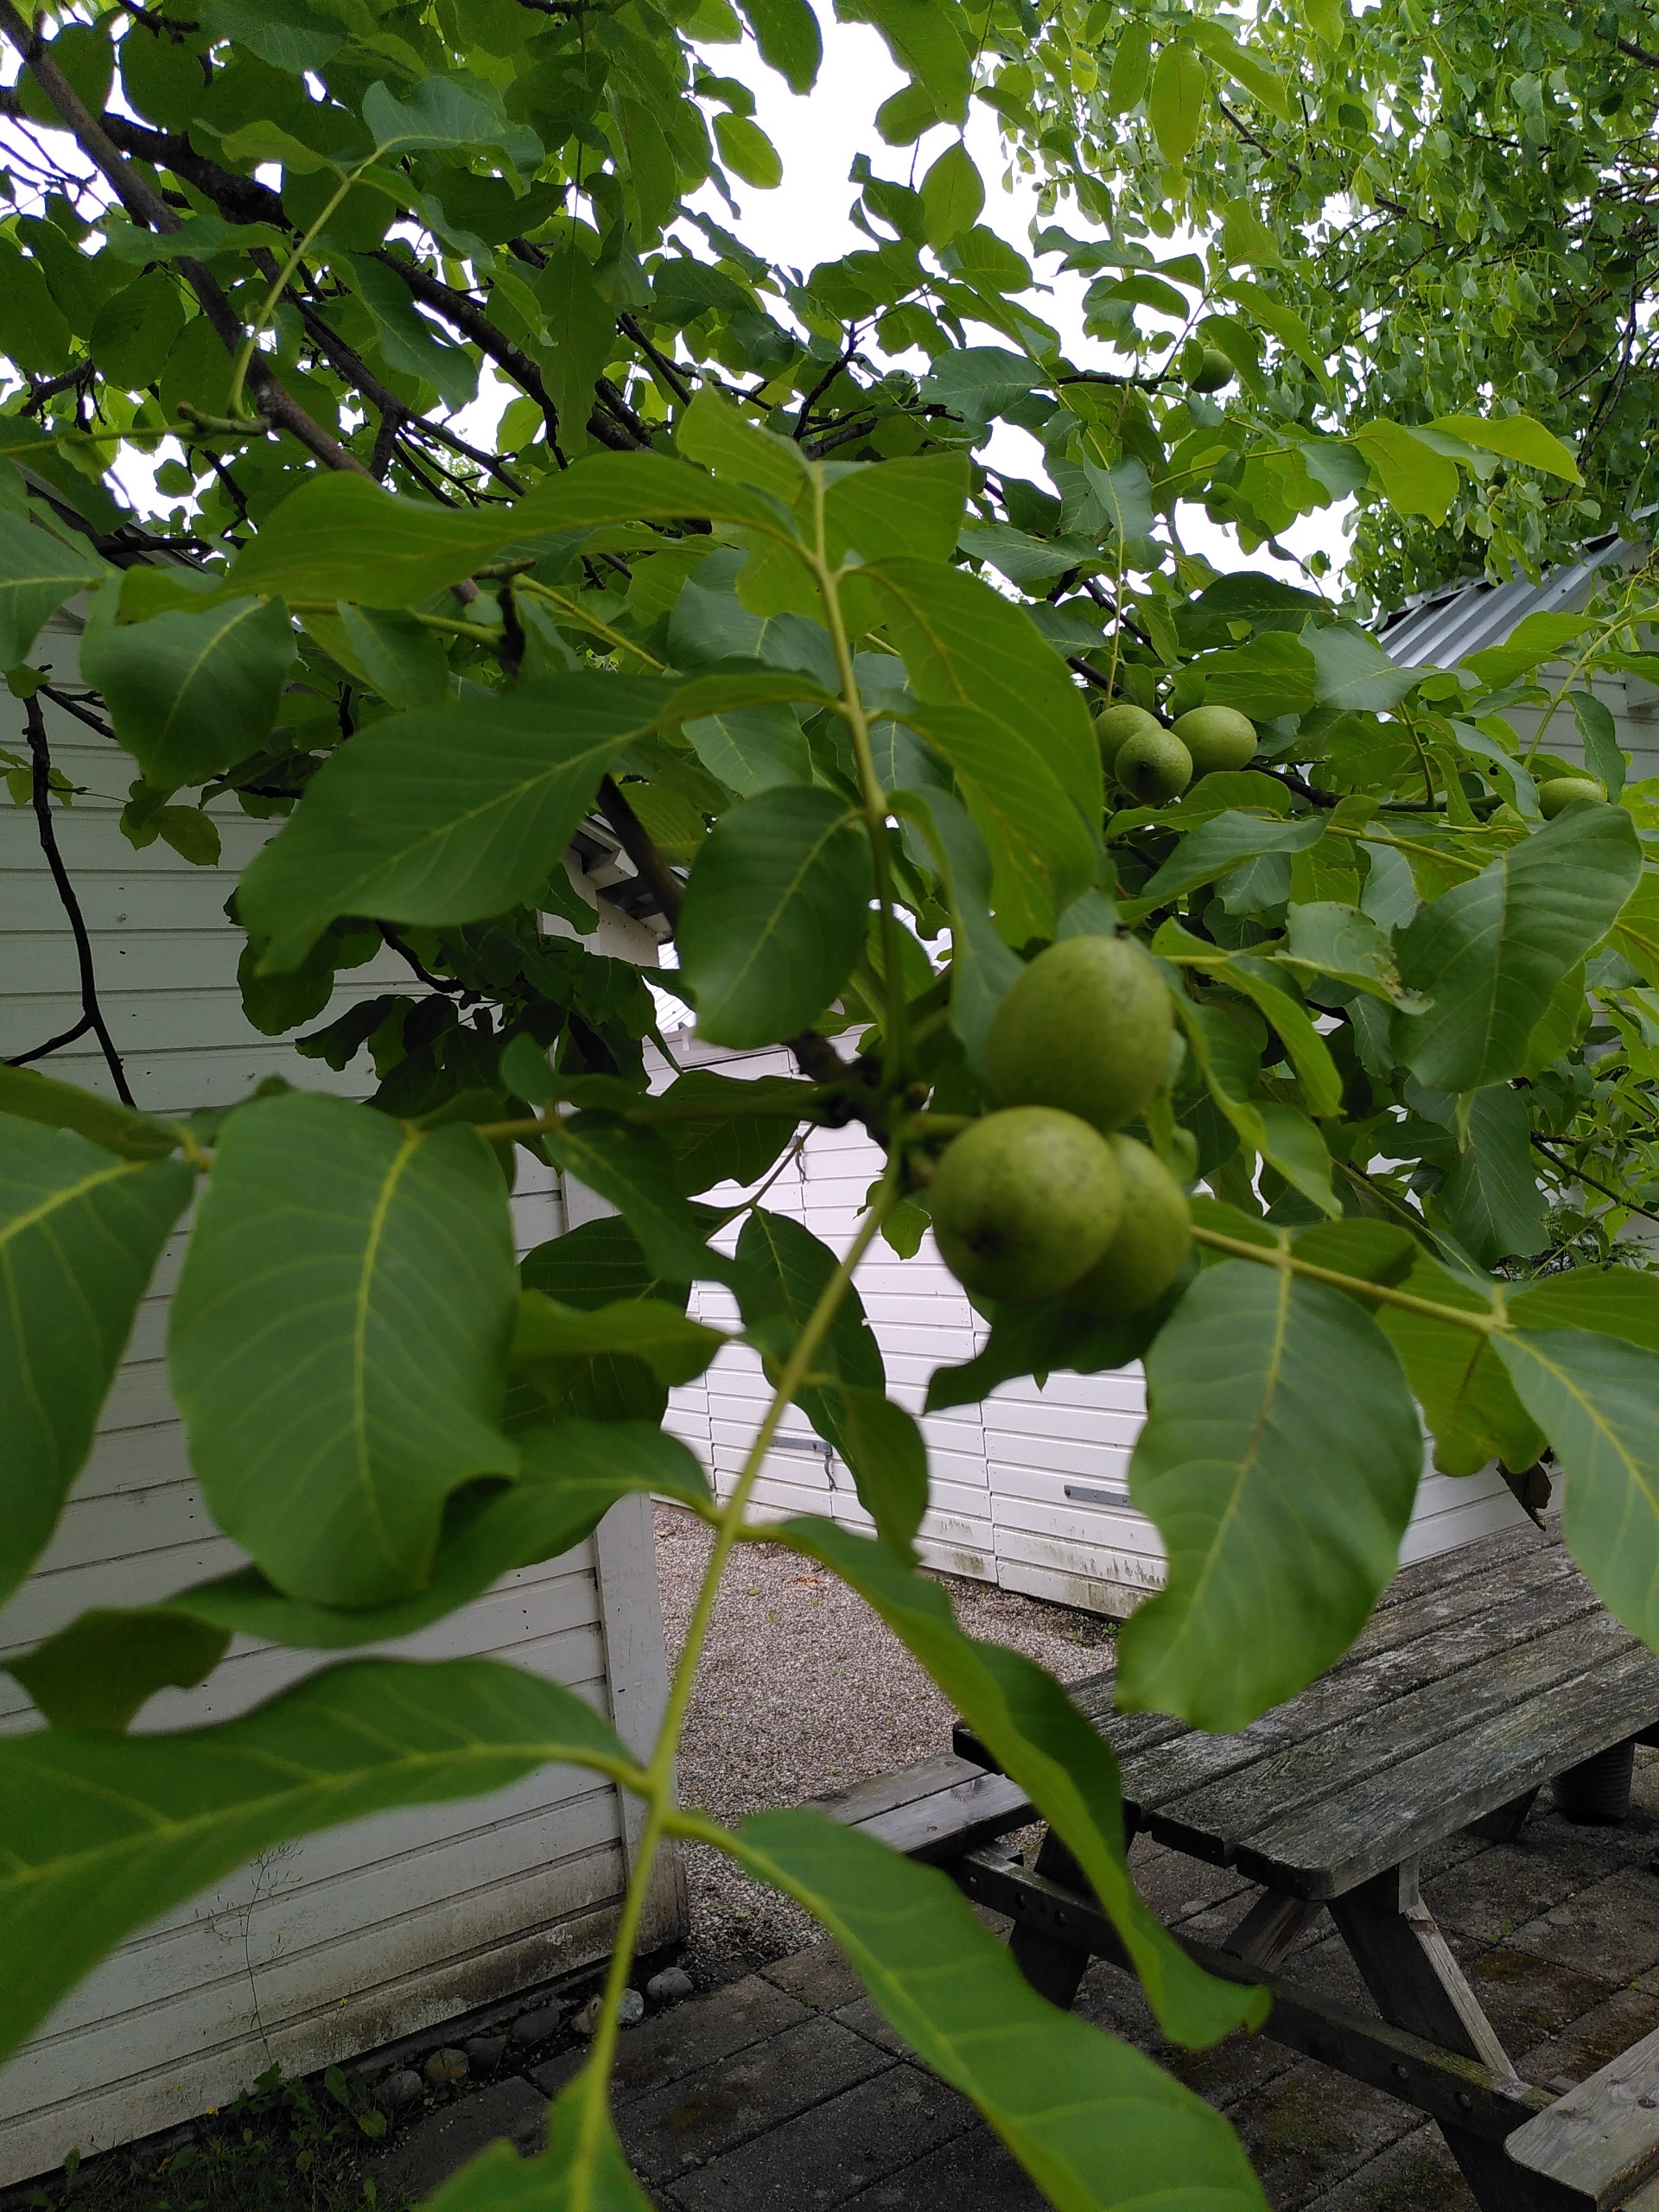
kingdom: Plantae
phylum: Tracheophyta
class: Magnoliopsida
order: Fagales
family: Juglandaceae
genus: Juglans
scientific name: Juglans regia
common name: Almindelig valnød
